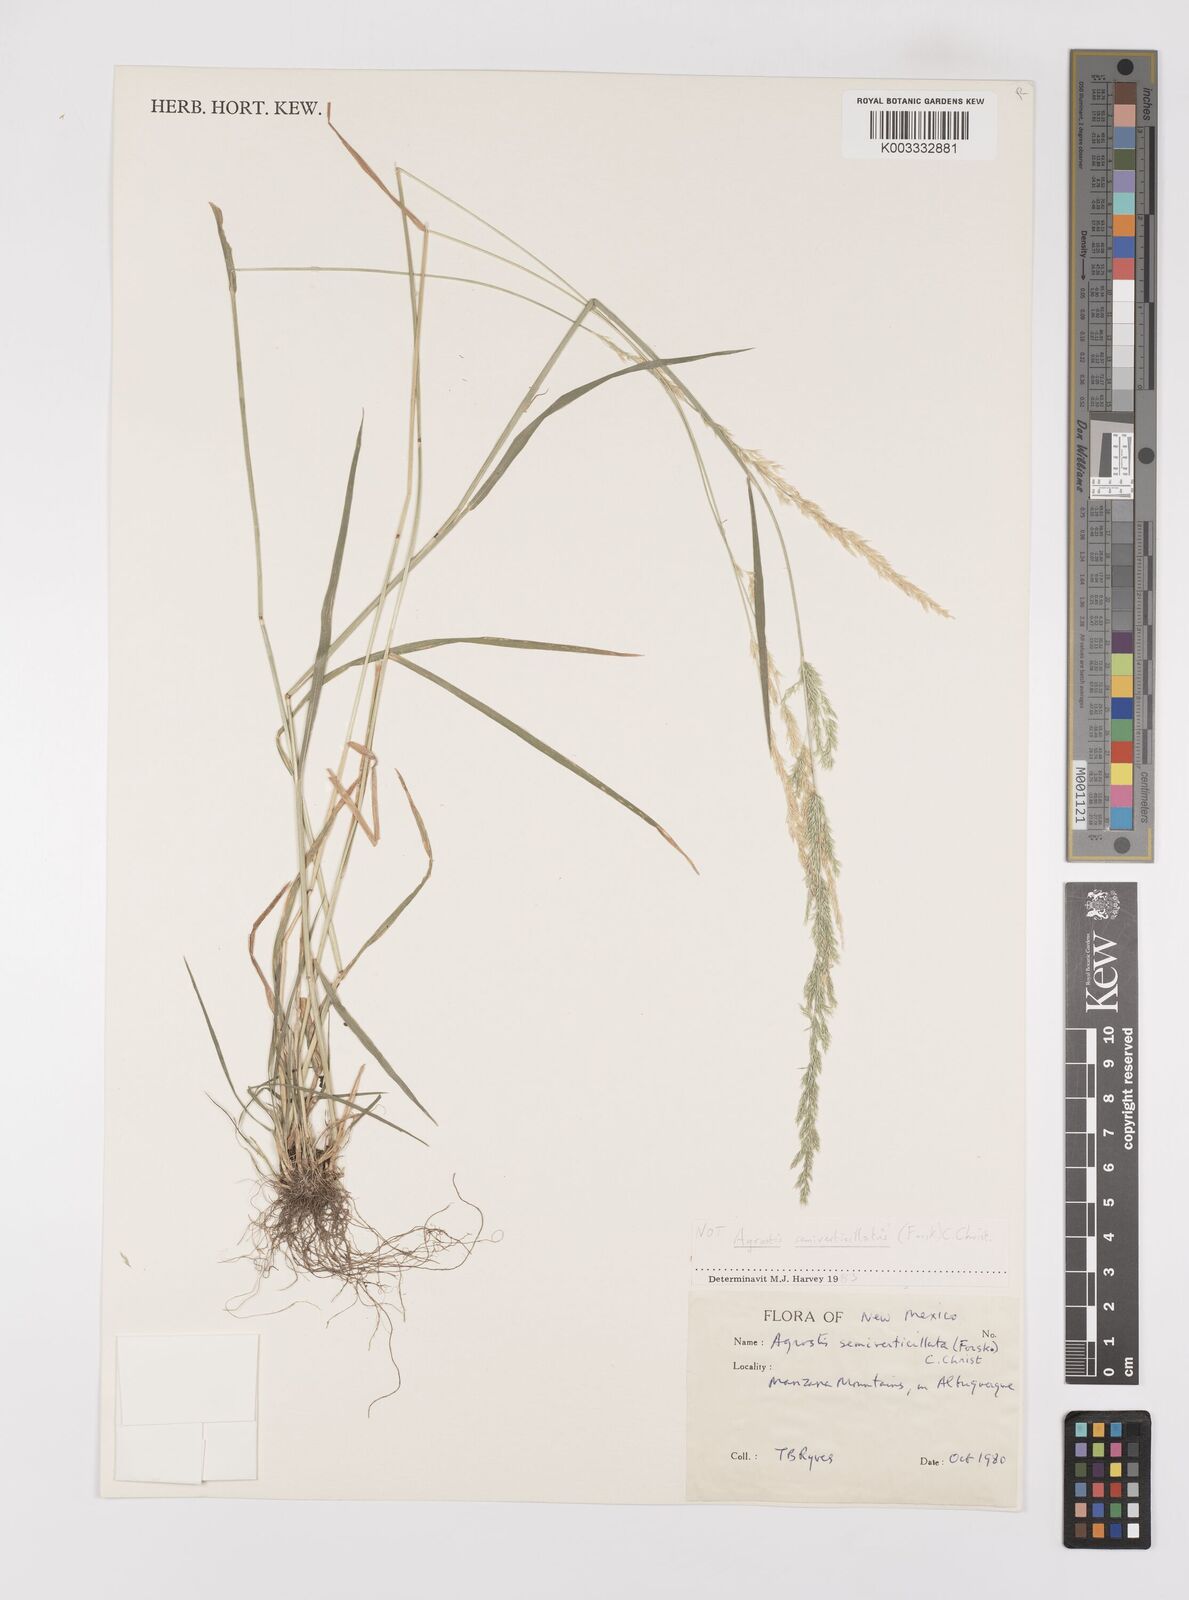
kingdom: Plantae
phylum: Tracheophyta
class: Liliopsida
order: Poales
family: Poaceae
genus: Polypogon
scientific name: Polypogon
